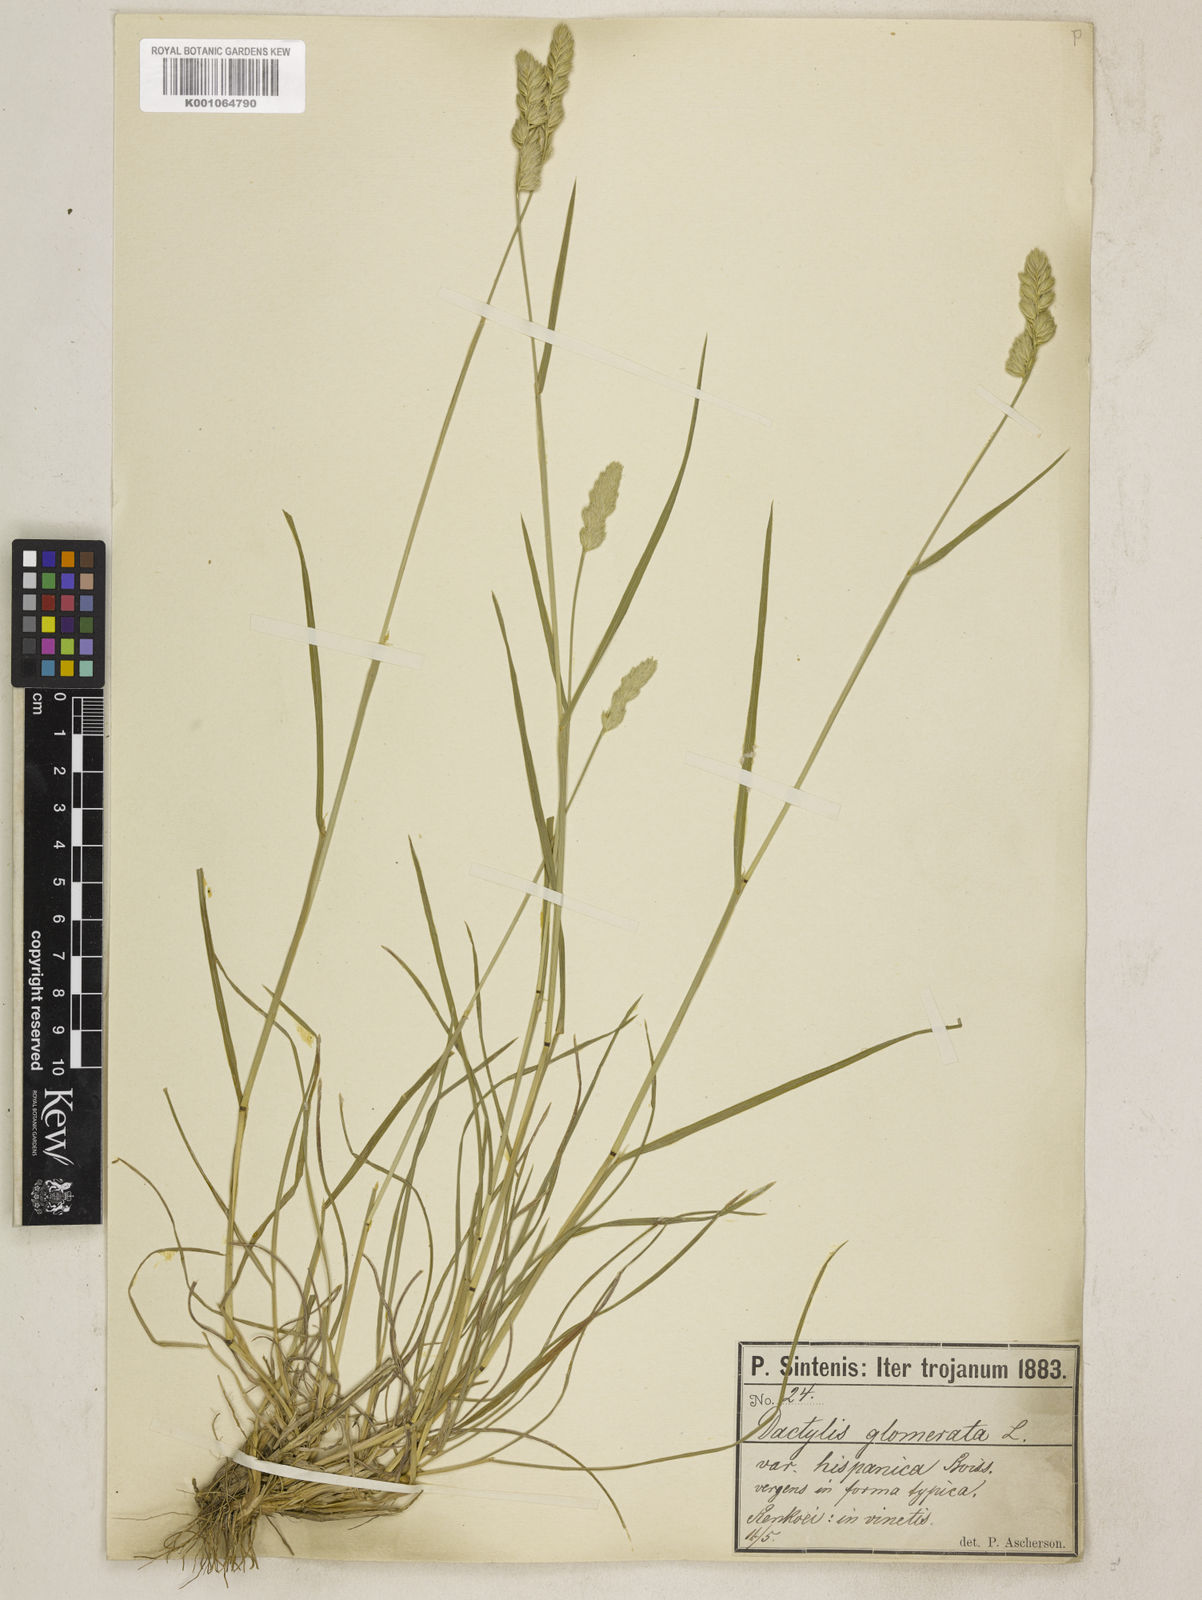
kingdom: Plantae
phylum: Tracheophyta
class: Liliopsida
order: Poales
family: Poaceae
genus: Dactylis
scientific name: Dactylis glomerata
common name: Orchardgrass
